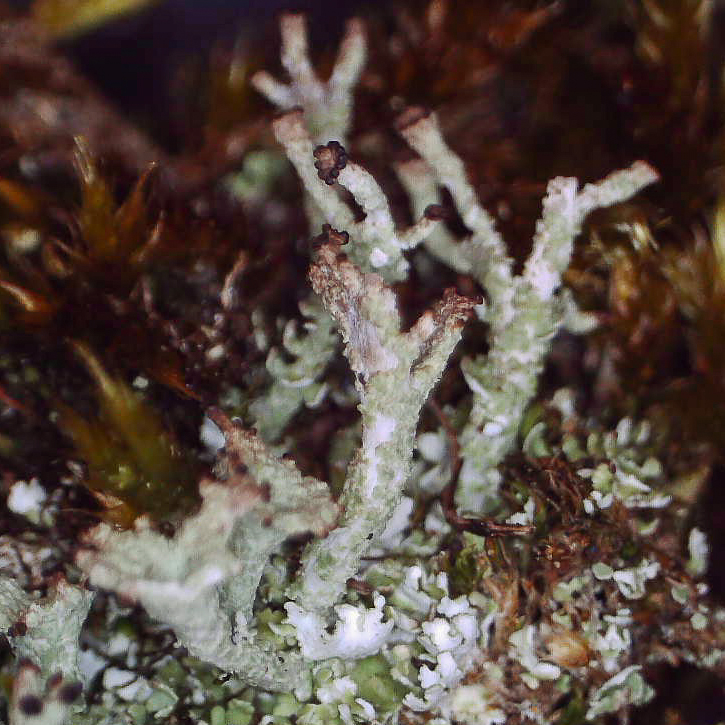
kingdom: Fungi
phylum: Ascomycota
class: Lecanoromycetes
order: Lecanorales
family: Cladoniaceae
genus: Cladonia
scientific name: Cladonia
